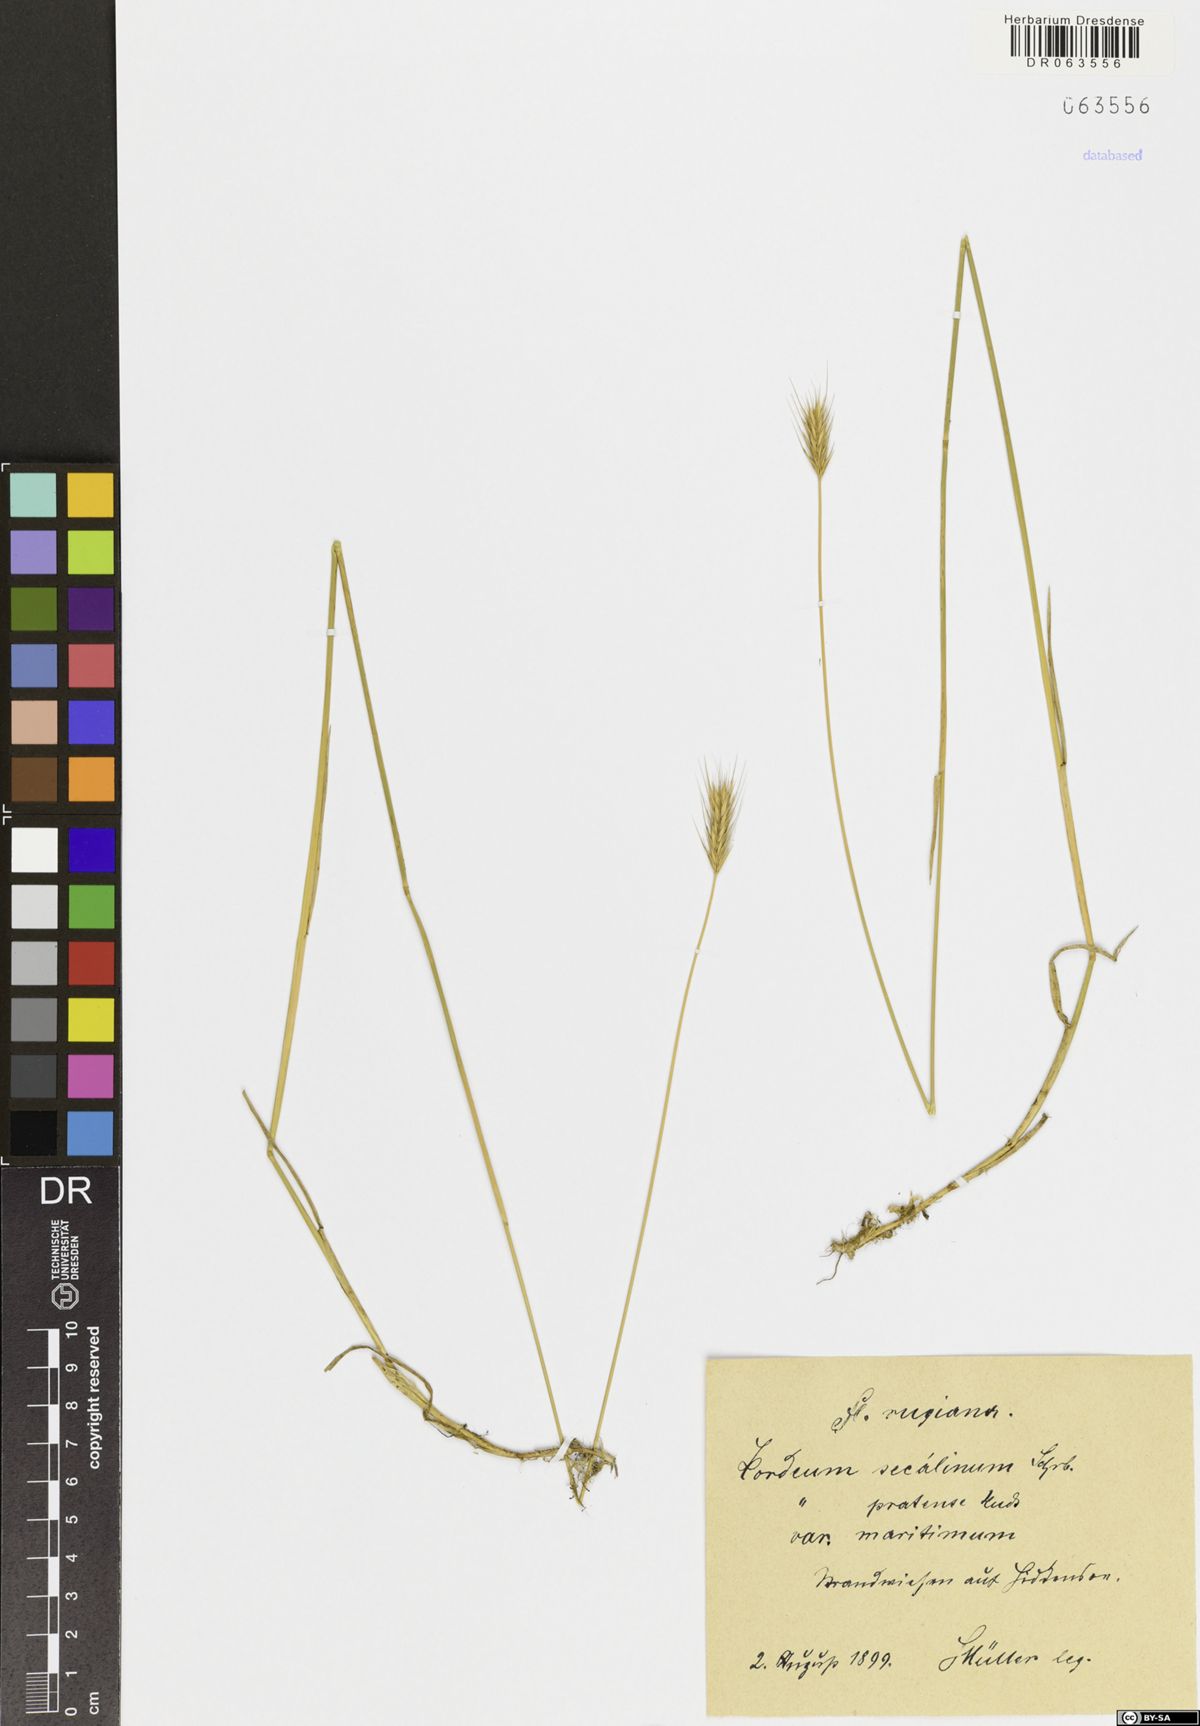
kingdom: Plantae
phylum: Tracheophyta
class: Liliopsida
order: Poales
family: Poaceae
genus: Hordeum
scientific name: Hordeum secalinum
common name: Meadow barley
